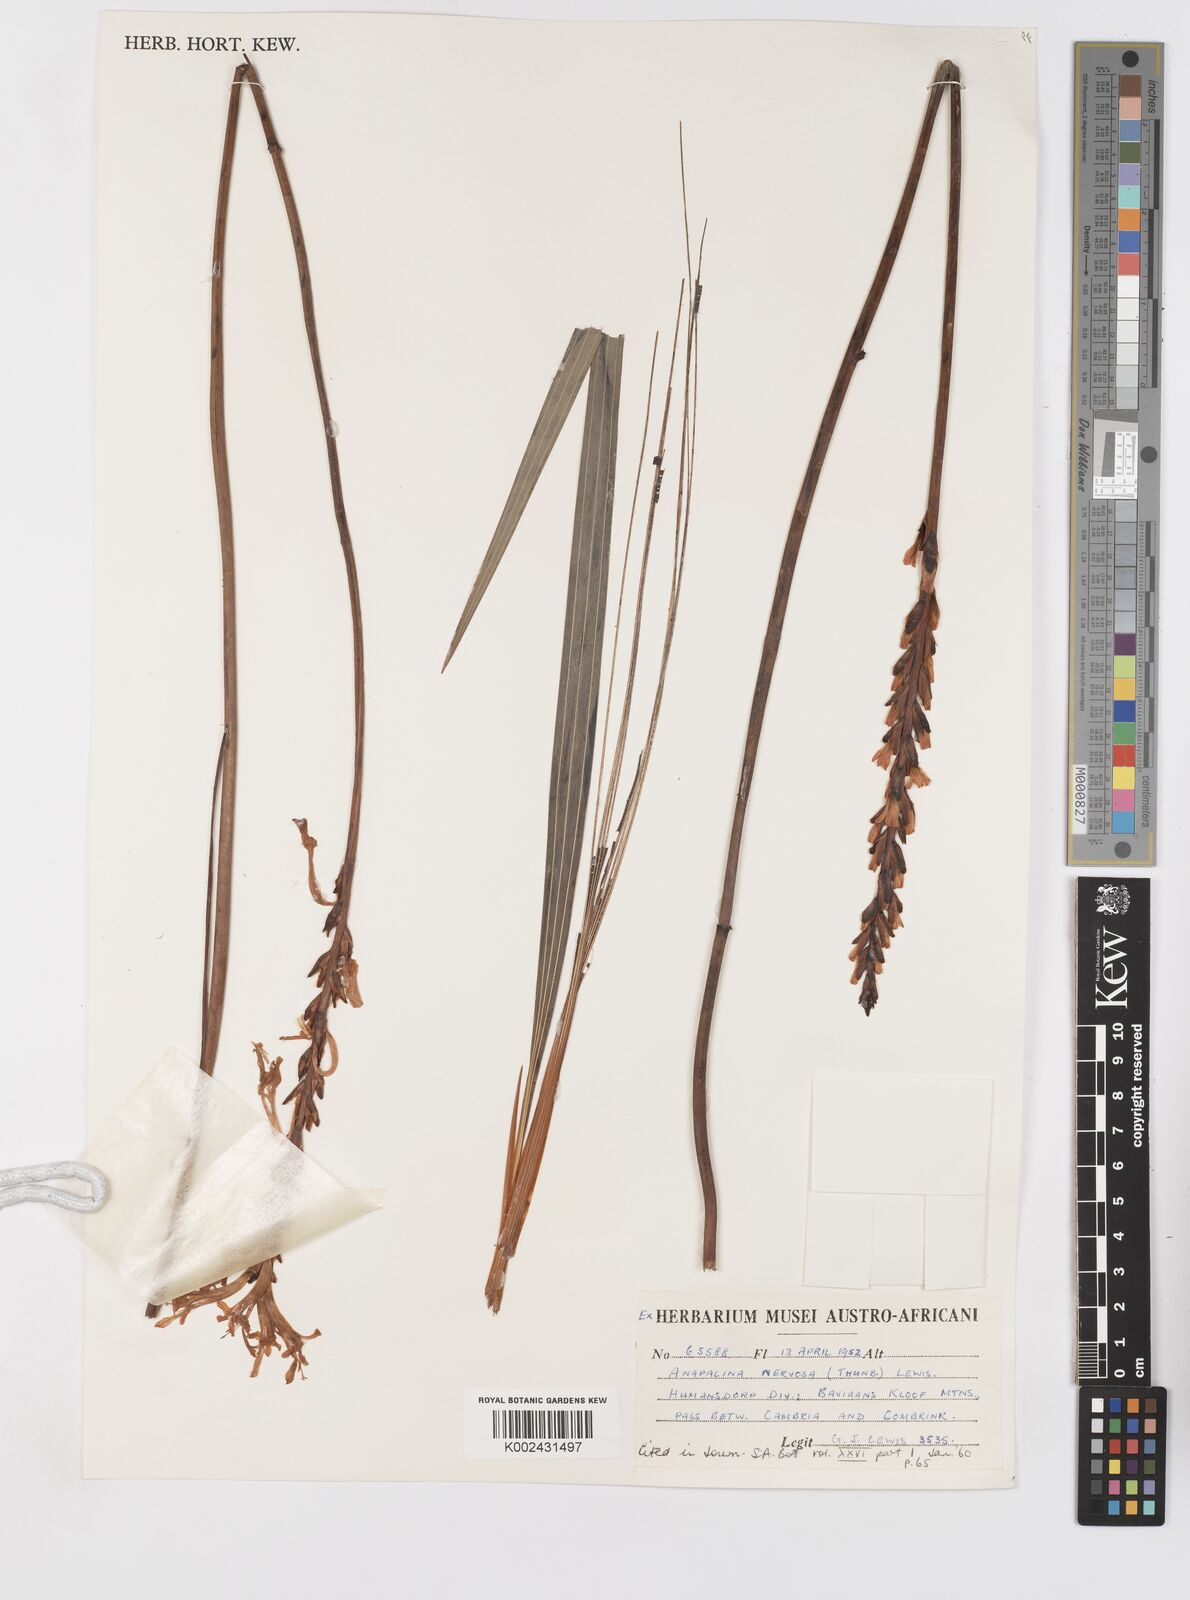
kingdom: Plantae
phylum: Tracheophyta
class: Liliopsida
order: Asparagales
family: Iridaceae
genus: Tritoniopsis
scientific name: Tritoniopsis nervosa
